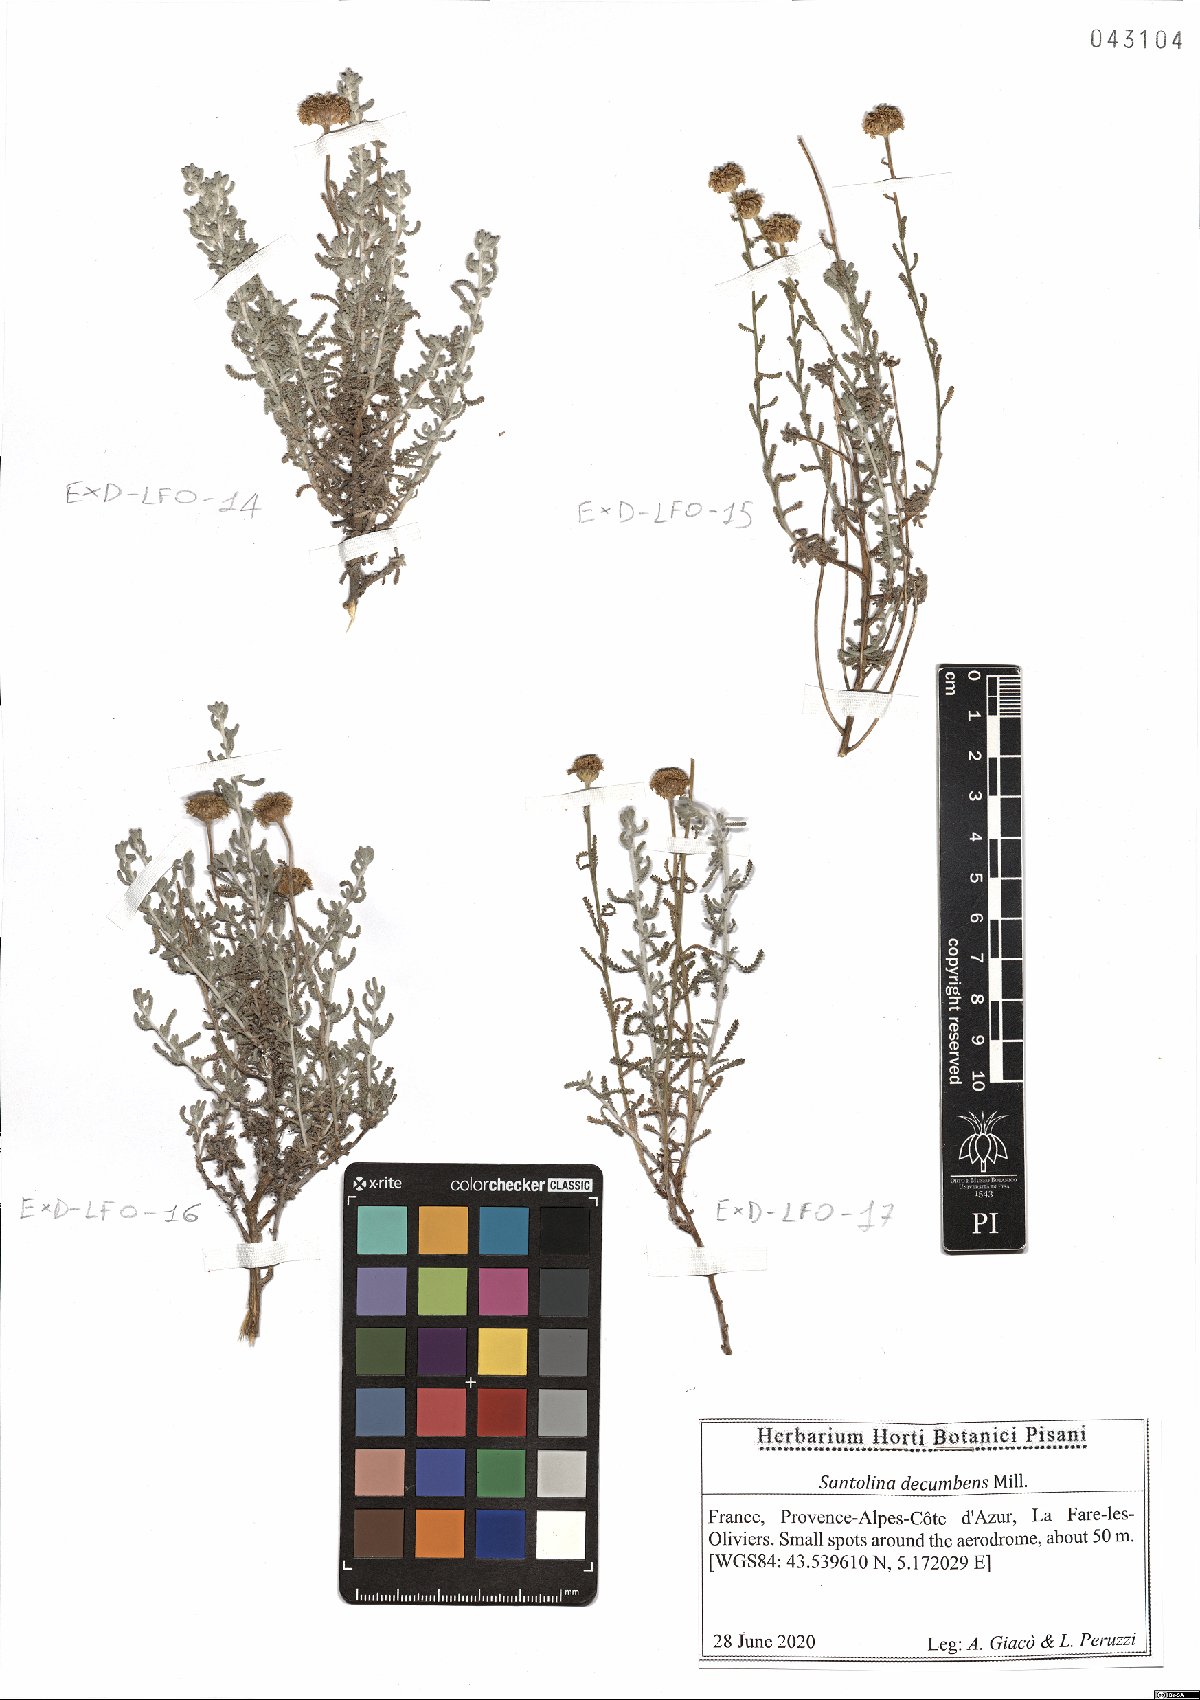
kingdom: Plantae
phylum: Tracheophyta
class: Magnoliopsida
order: Asterales
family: Asteraceae
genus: Santolina
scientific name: Santolina decumbens
